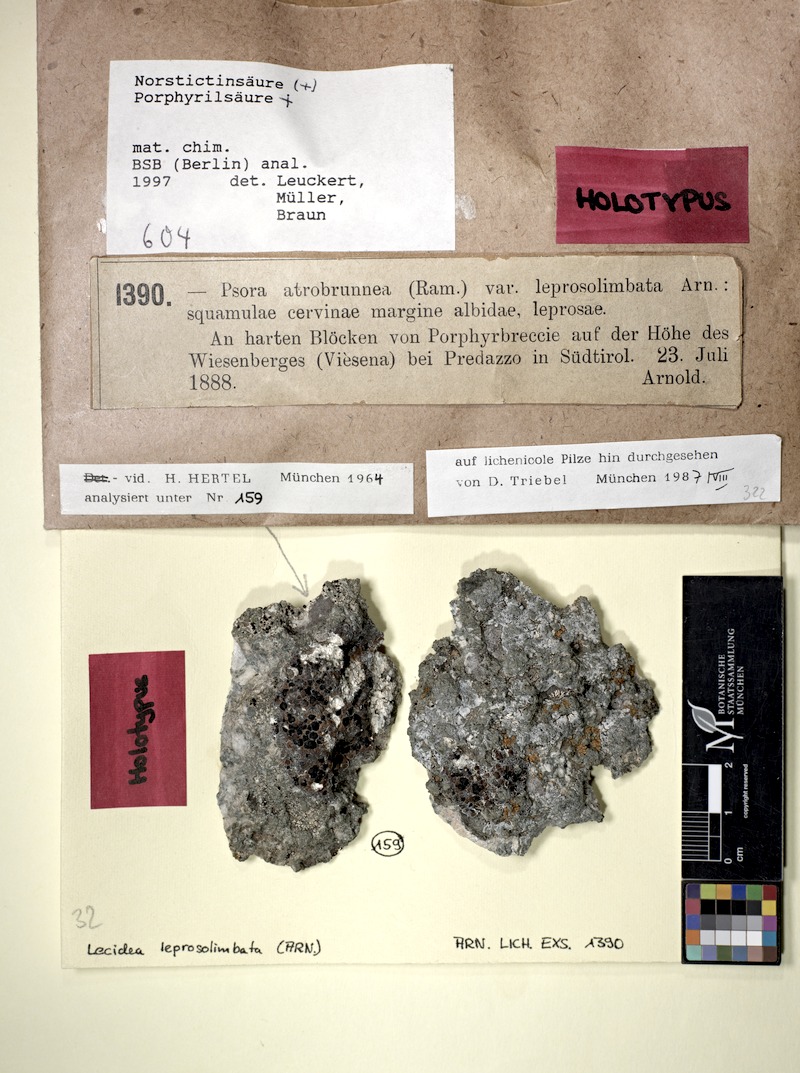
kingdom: Fungi
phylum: Ascomycota
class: Lecanoromycetes
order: Lecideales
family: Lecideaceae
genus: Lecidea
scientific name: Lecidea leprosolimbata
